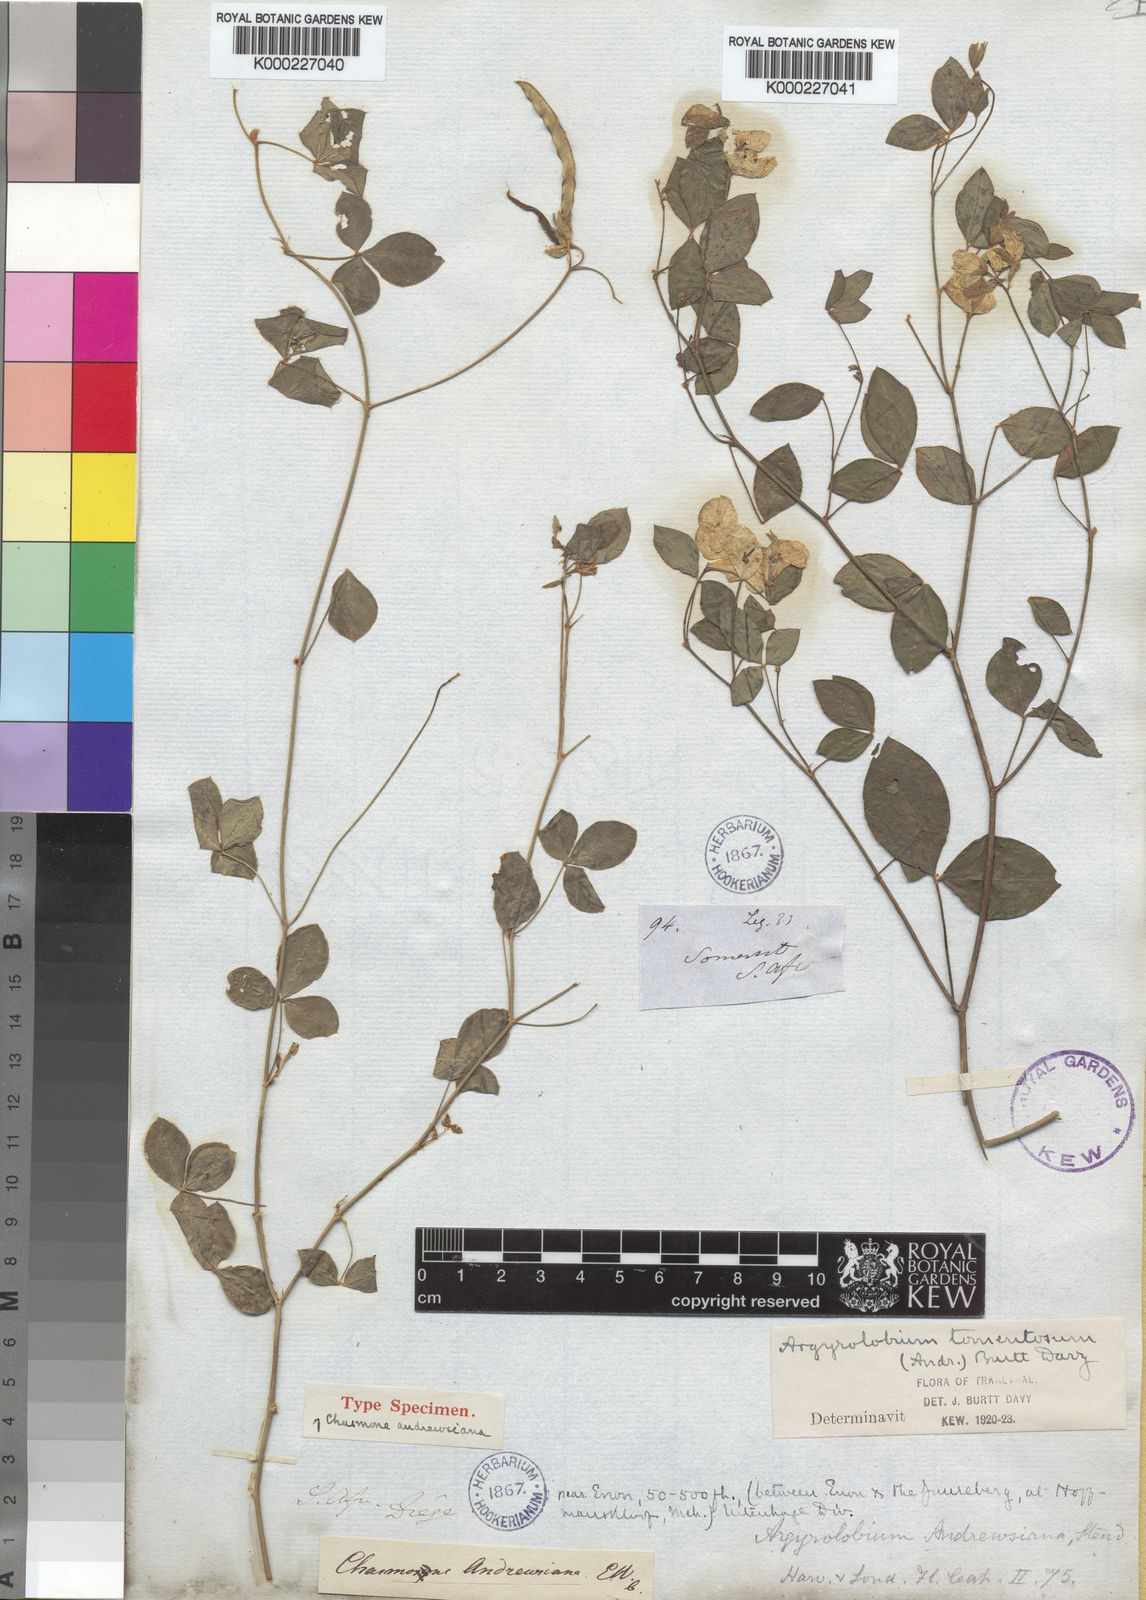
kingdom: Plantae
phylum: Tracheophyta
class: Magnoliopsida
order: Fabales
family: Fabaceae
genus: Argyrolobium
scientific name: Argyrolobium tomentosum
